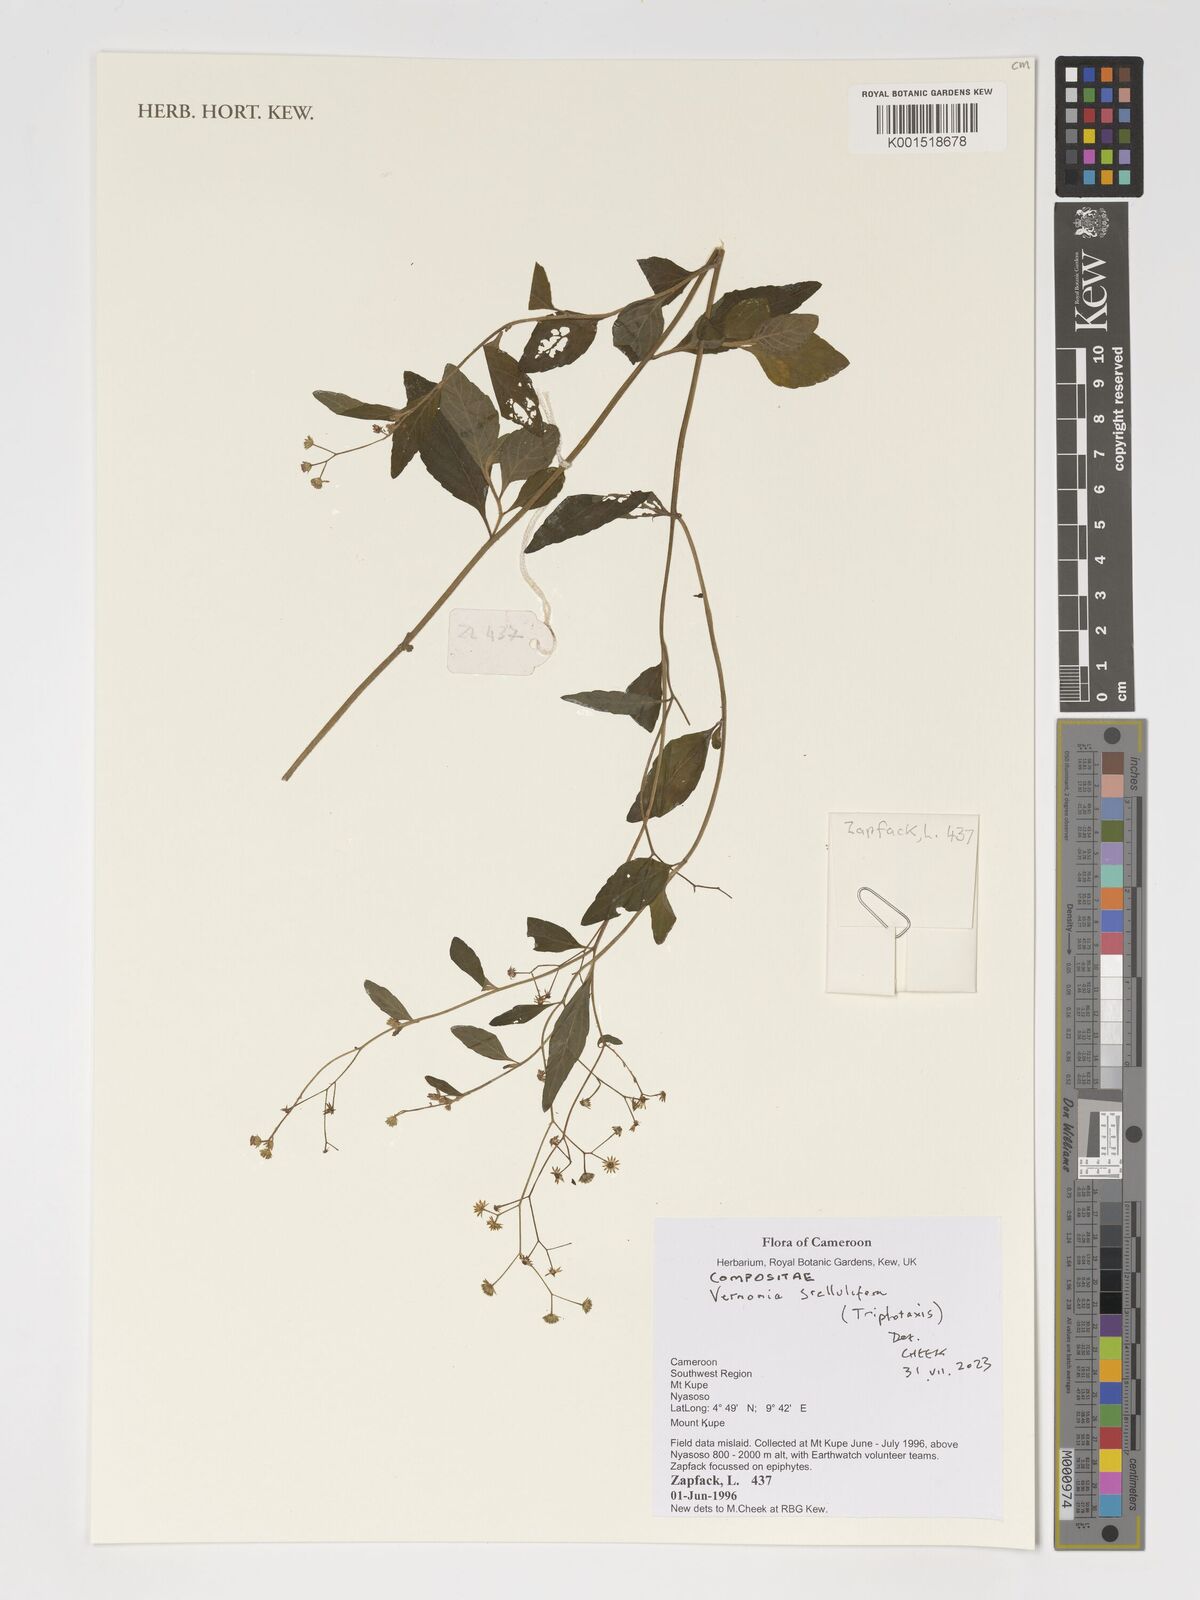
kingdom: Plantae
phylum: Tracheophyta
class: Magnoliopsida
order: Asterales
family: Asteraceae
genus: Cyanthillium
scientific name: Cyanthillium stelluliferum
